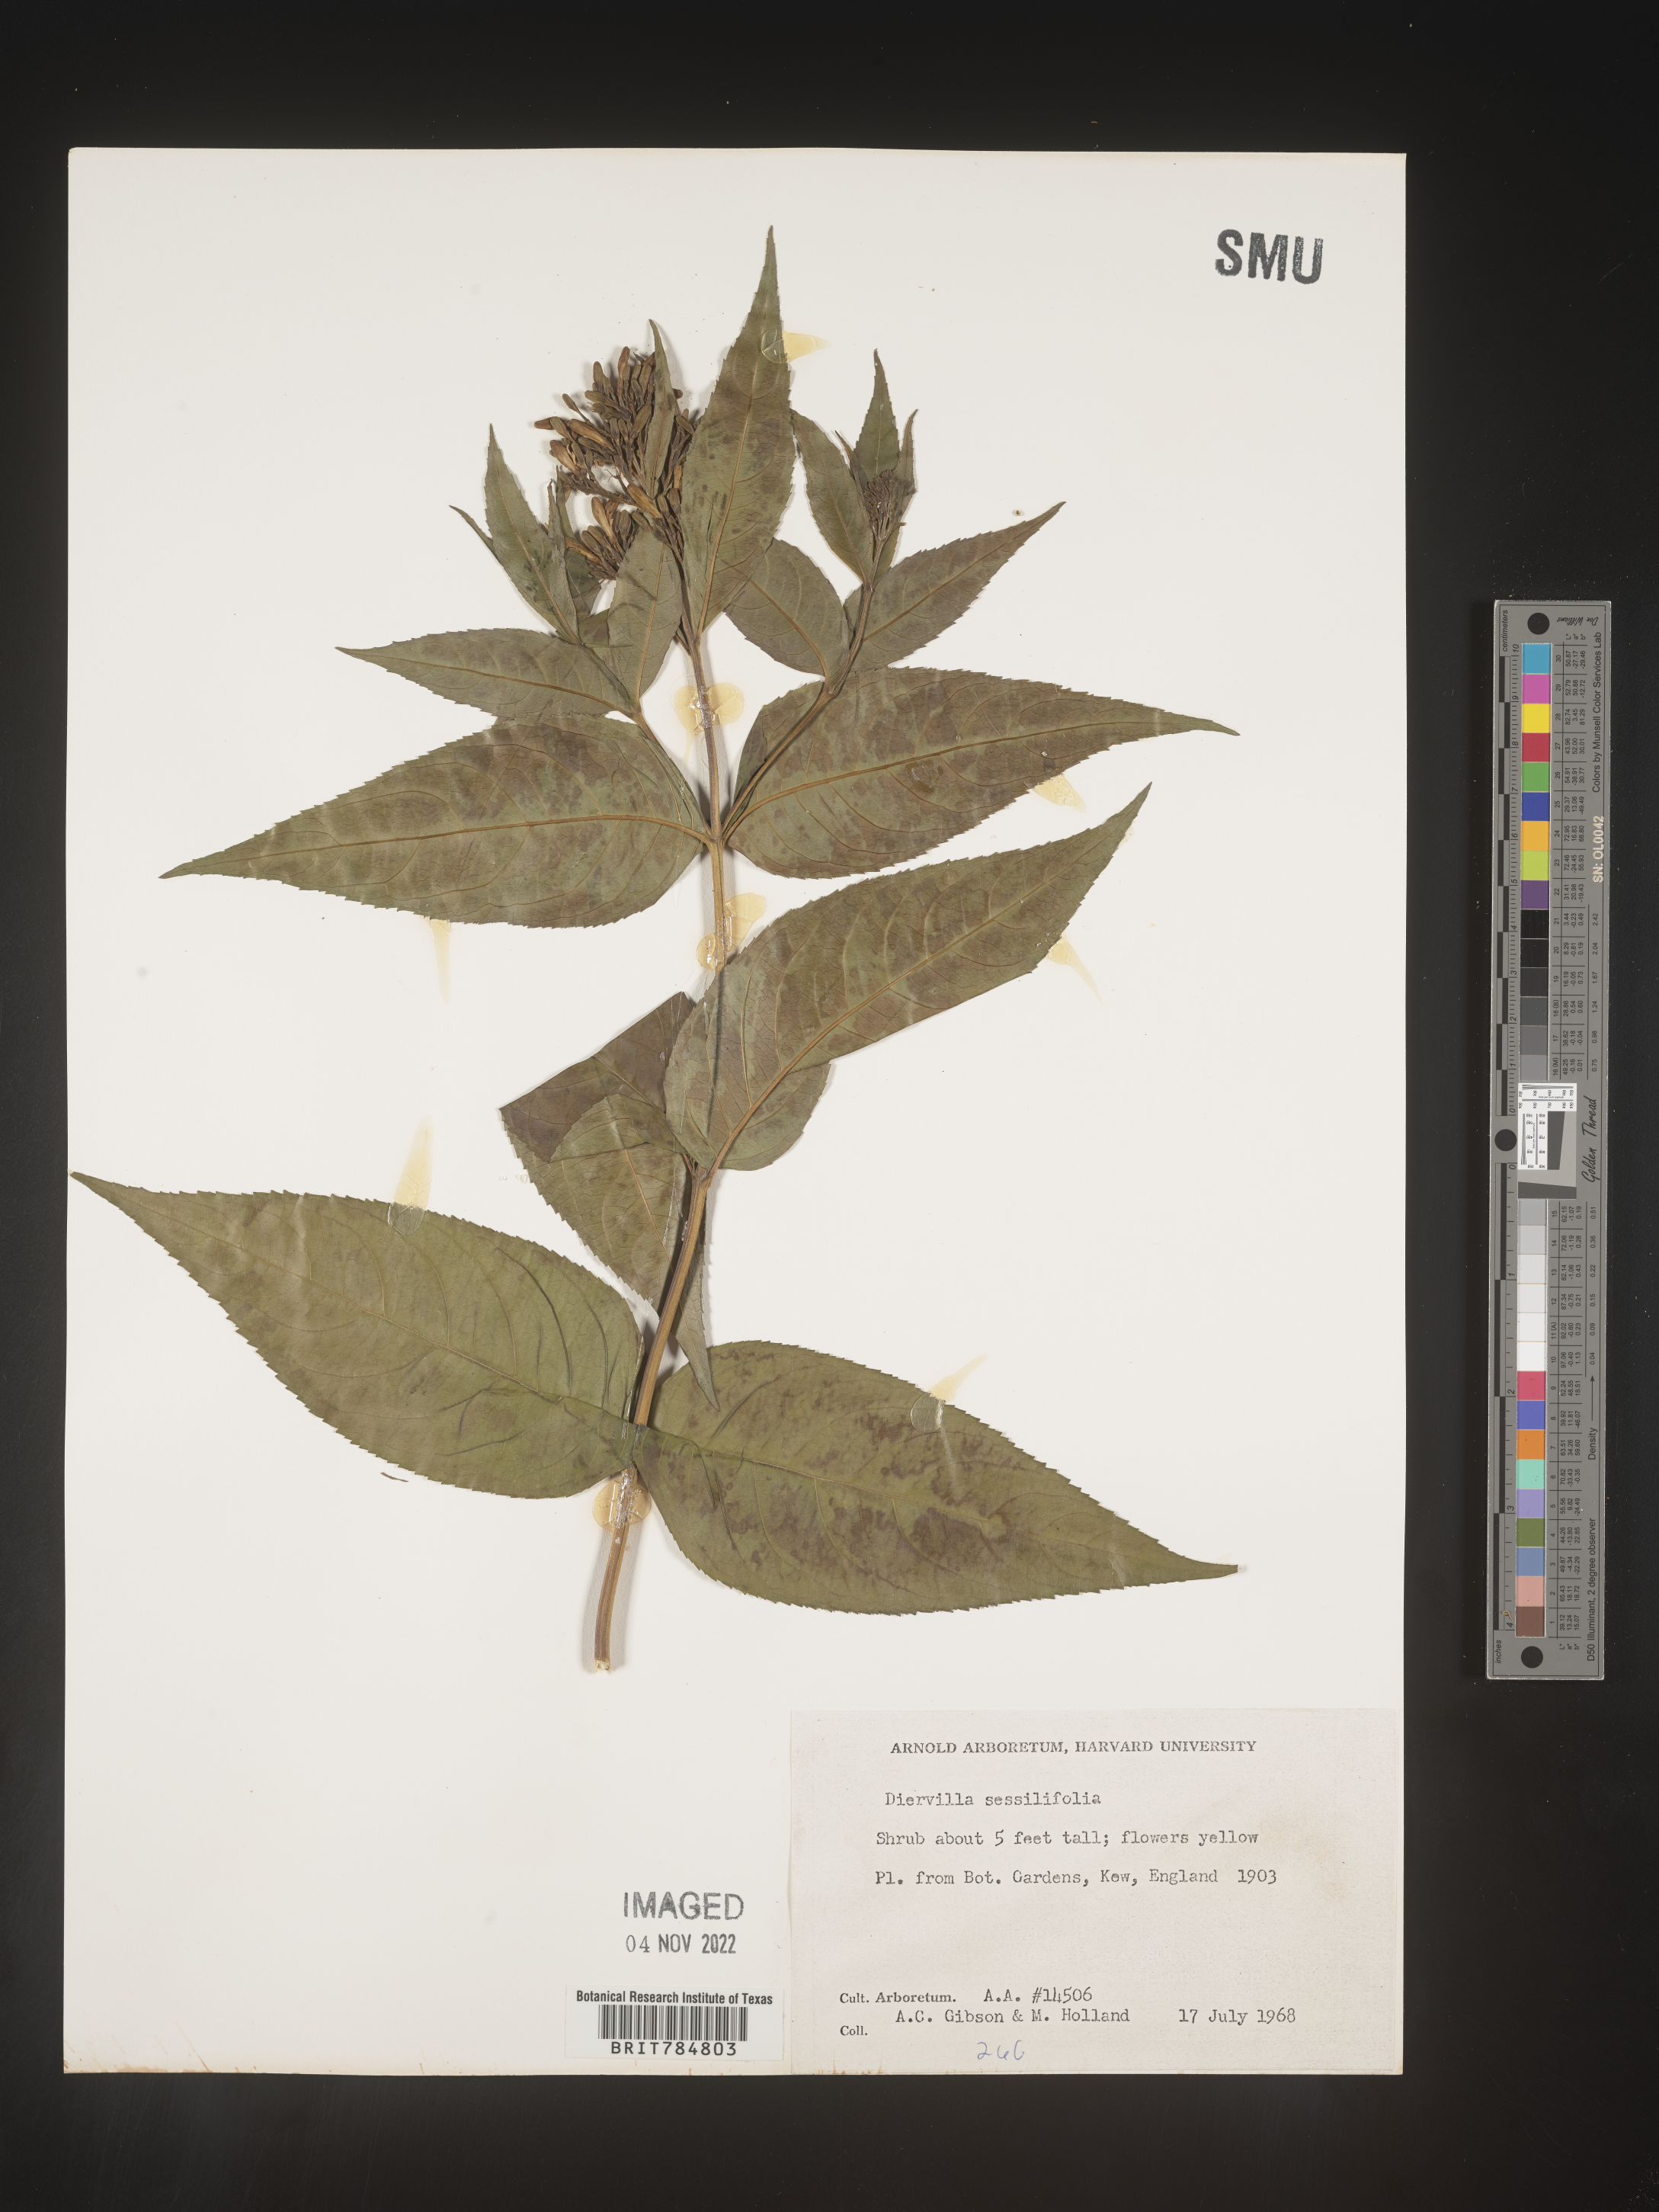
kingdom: Plantae
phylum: Tracheophyta
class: Magnoliopsida
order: Dipsacales
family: Caprifoliaceae
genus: Diervilla
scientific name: Diervilla
